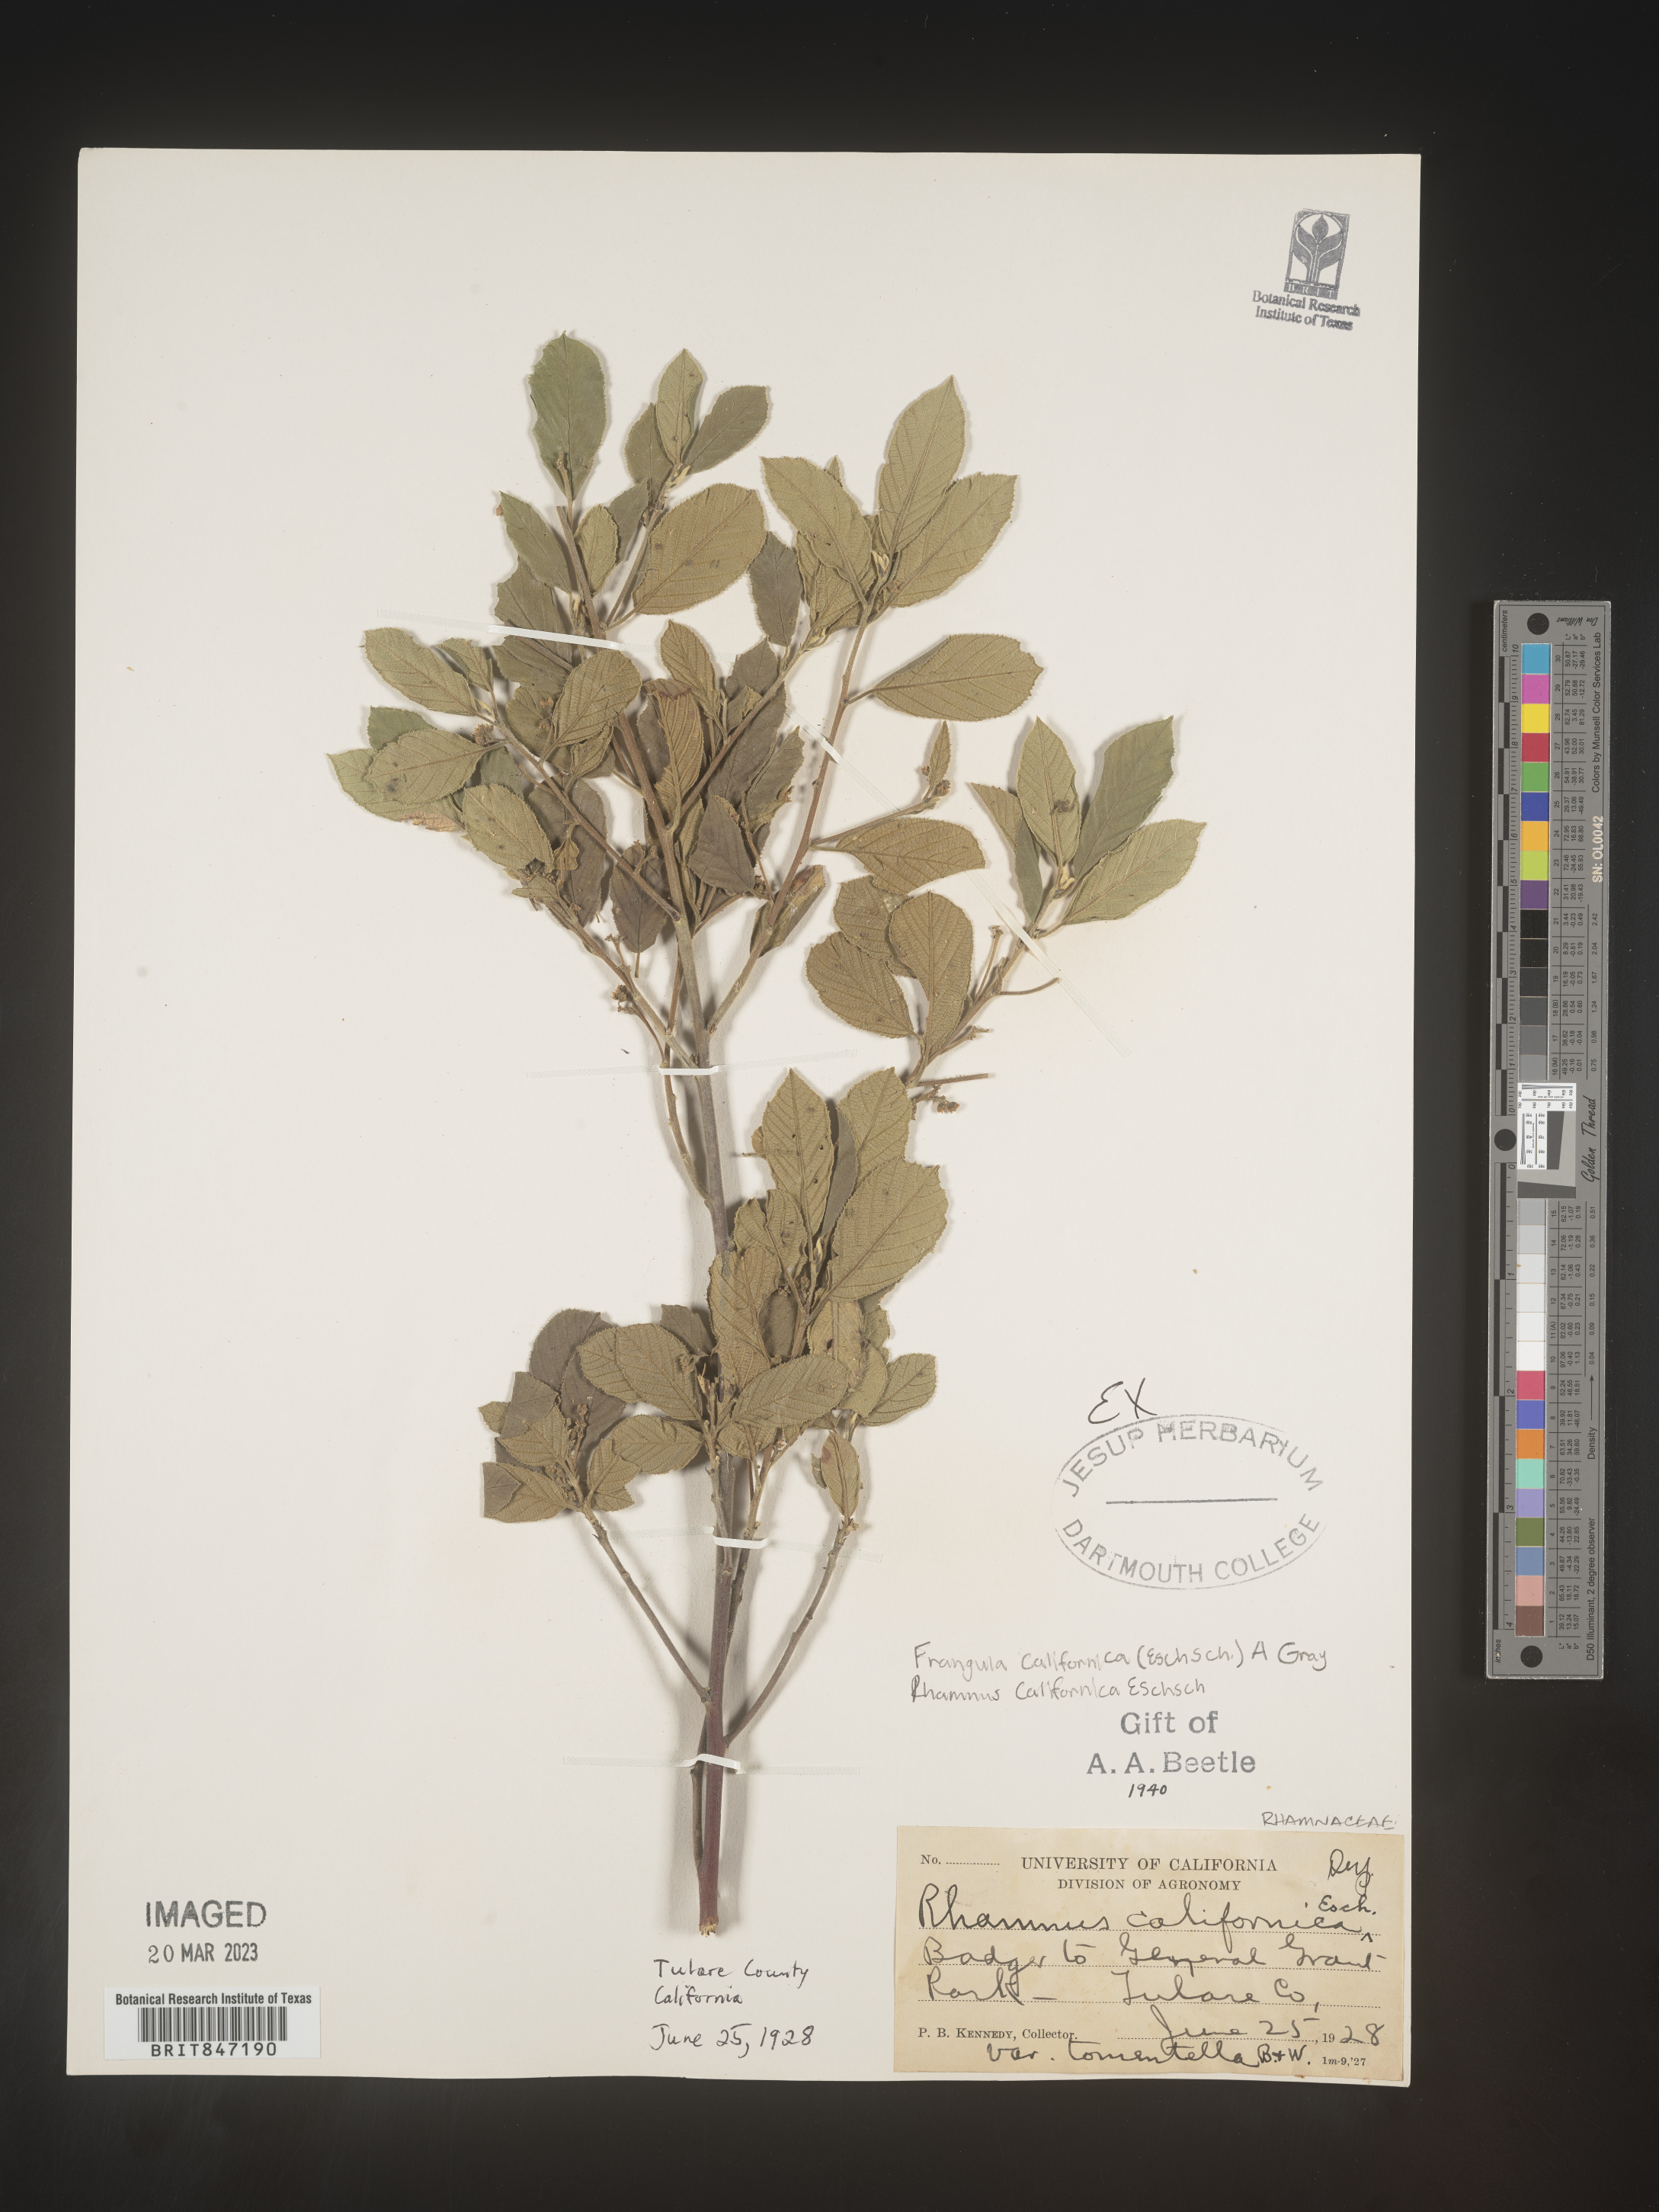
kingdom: Plantae
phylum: Tracheophyta
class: Magnoliopsida
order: Rosales
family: Rhamnaceae
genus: Frangula
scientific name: Frangula
